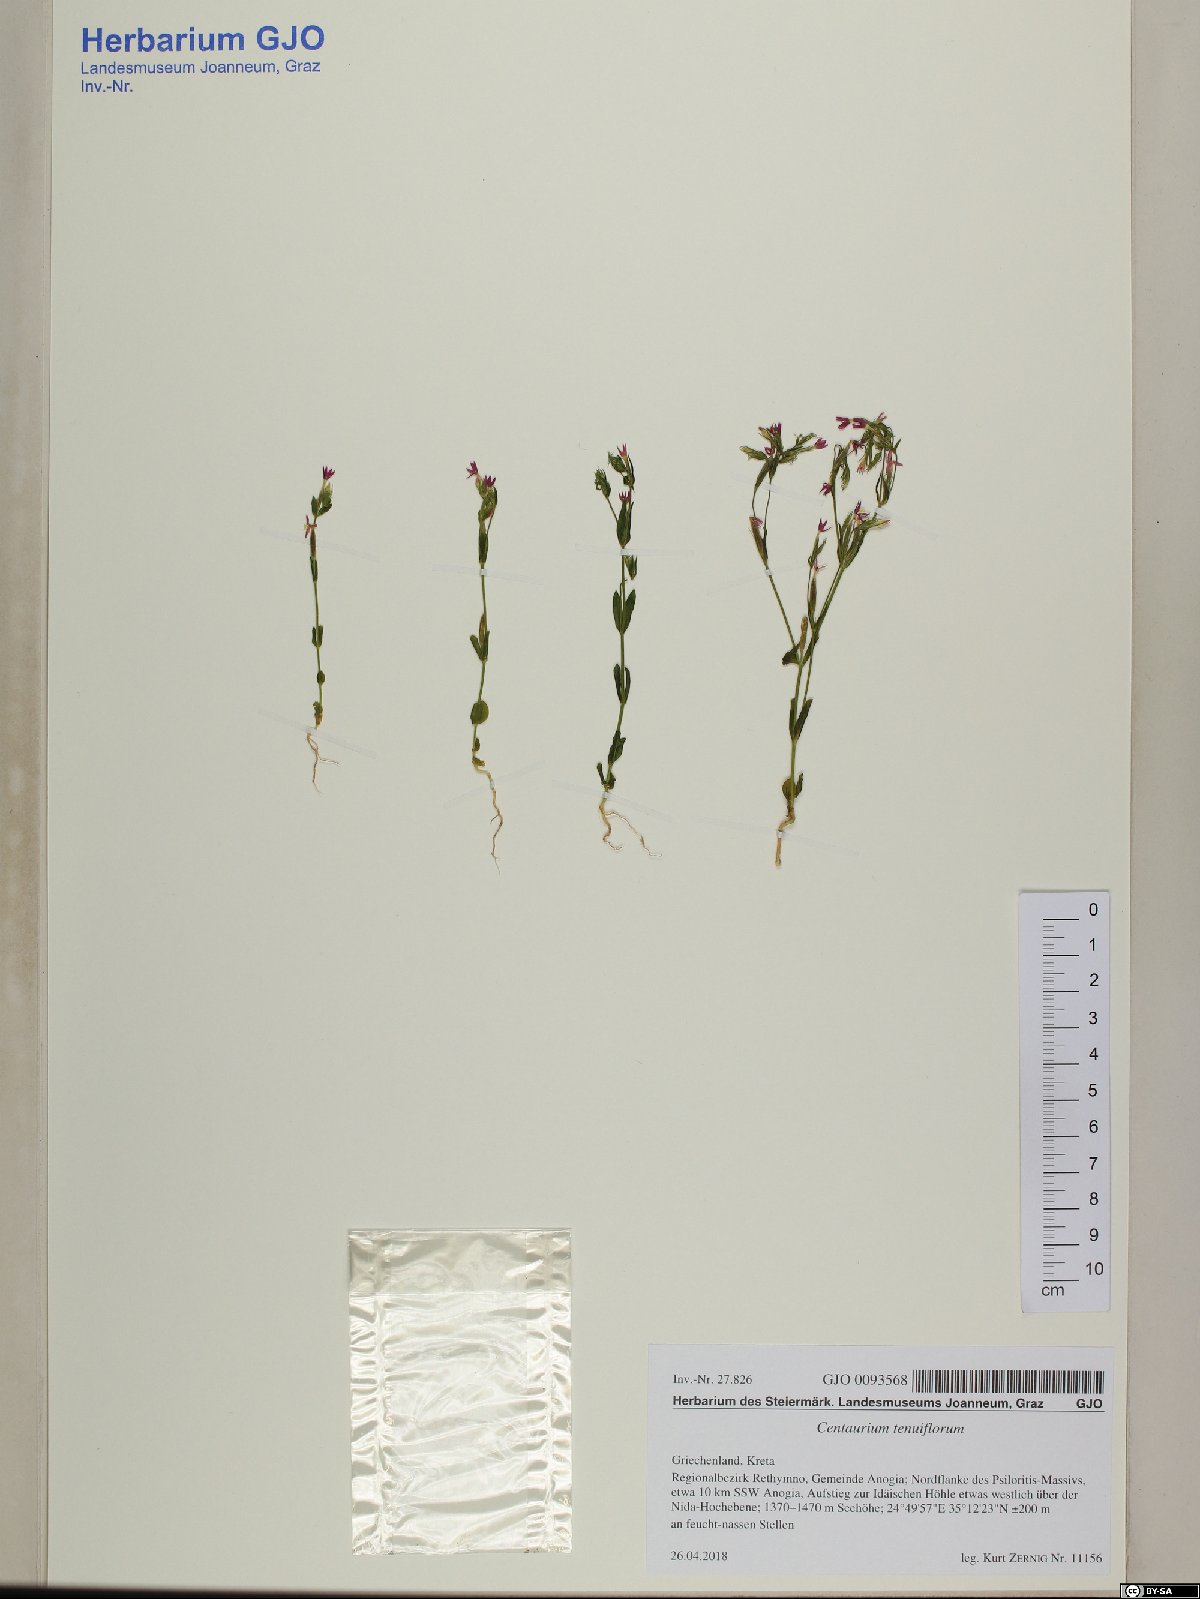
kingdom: Plantae
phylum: Tracheophyta
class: Magnoliopsida
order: Gentianales
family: Gentianaceae
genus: Centaurium
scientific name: Centaurium tenuiflorum
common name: Slender centaury
